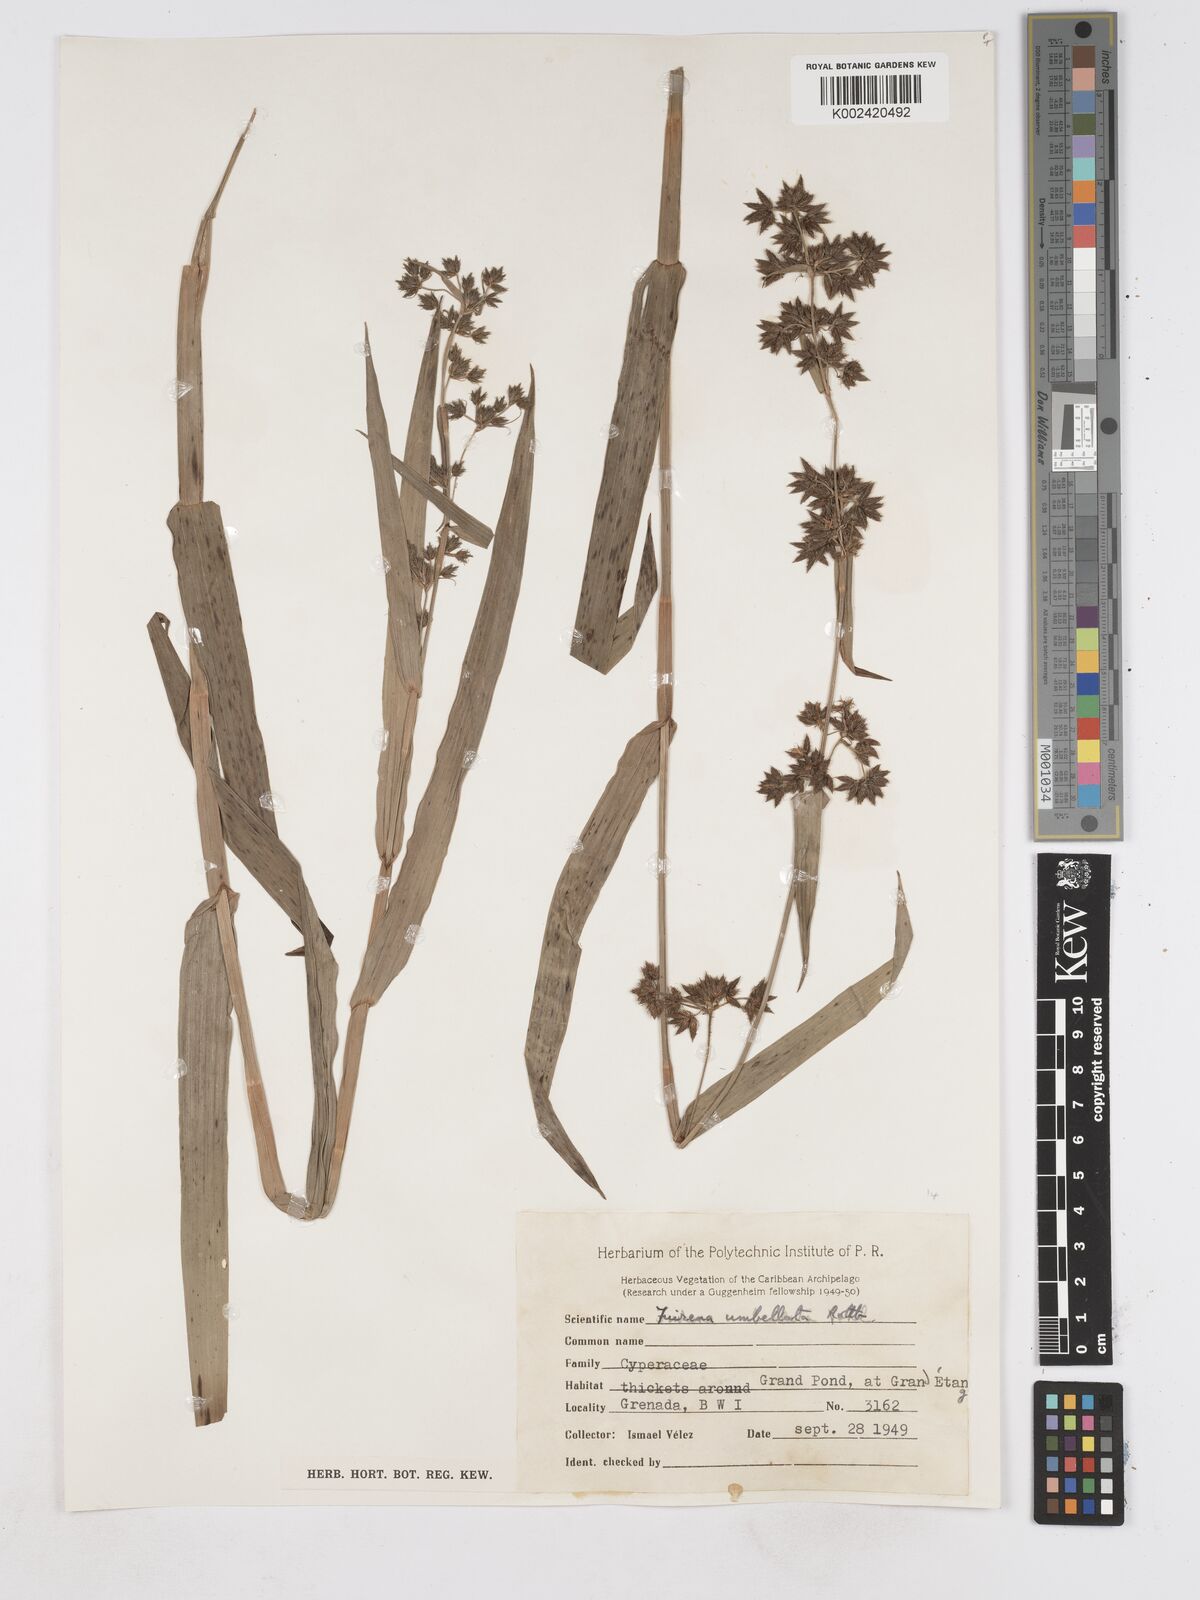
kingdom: Plantae
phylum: Tracheophyta
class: Liliopsida
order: Poales
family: Cyperaceae
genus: Fuirena
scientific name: Fuirena umbellata
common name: Yefen
